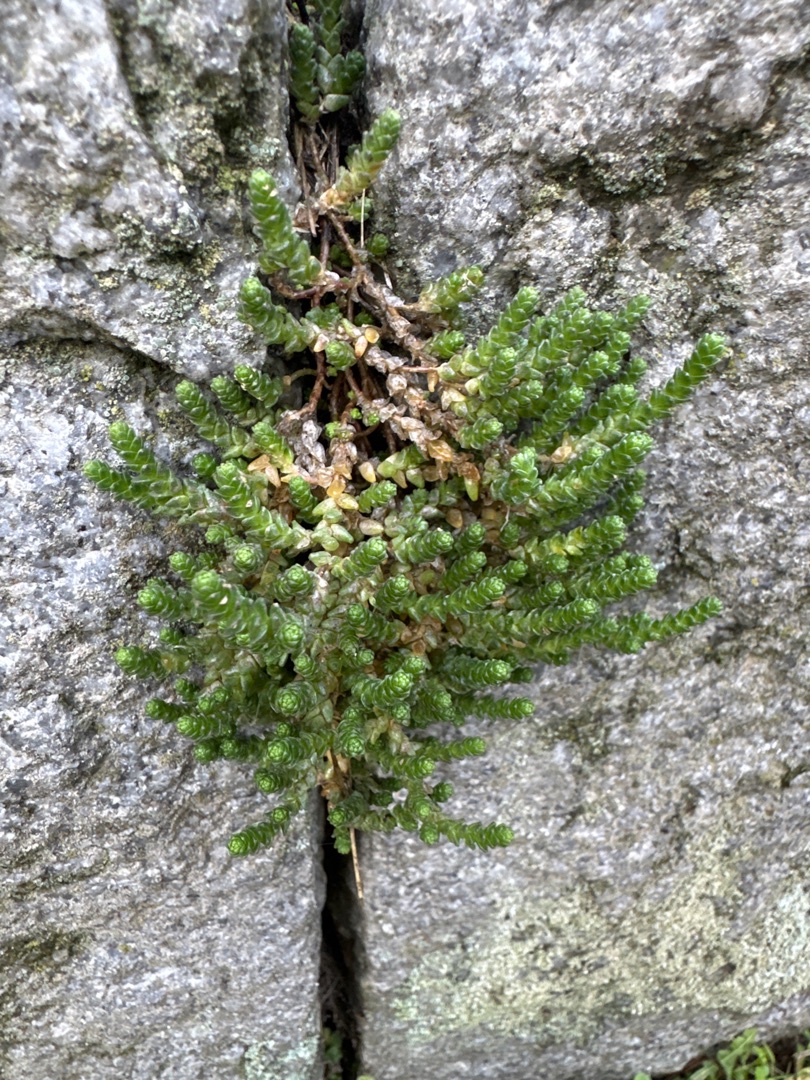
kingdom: Plantae
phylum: Tracheophyta
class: Magnoliopsida
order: Saxifragales
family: Crassulaceae
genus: Sedum
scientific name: Sedum acre
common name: Bidende stenurt
